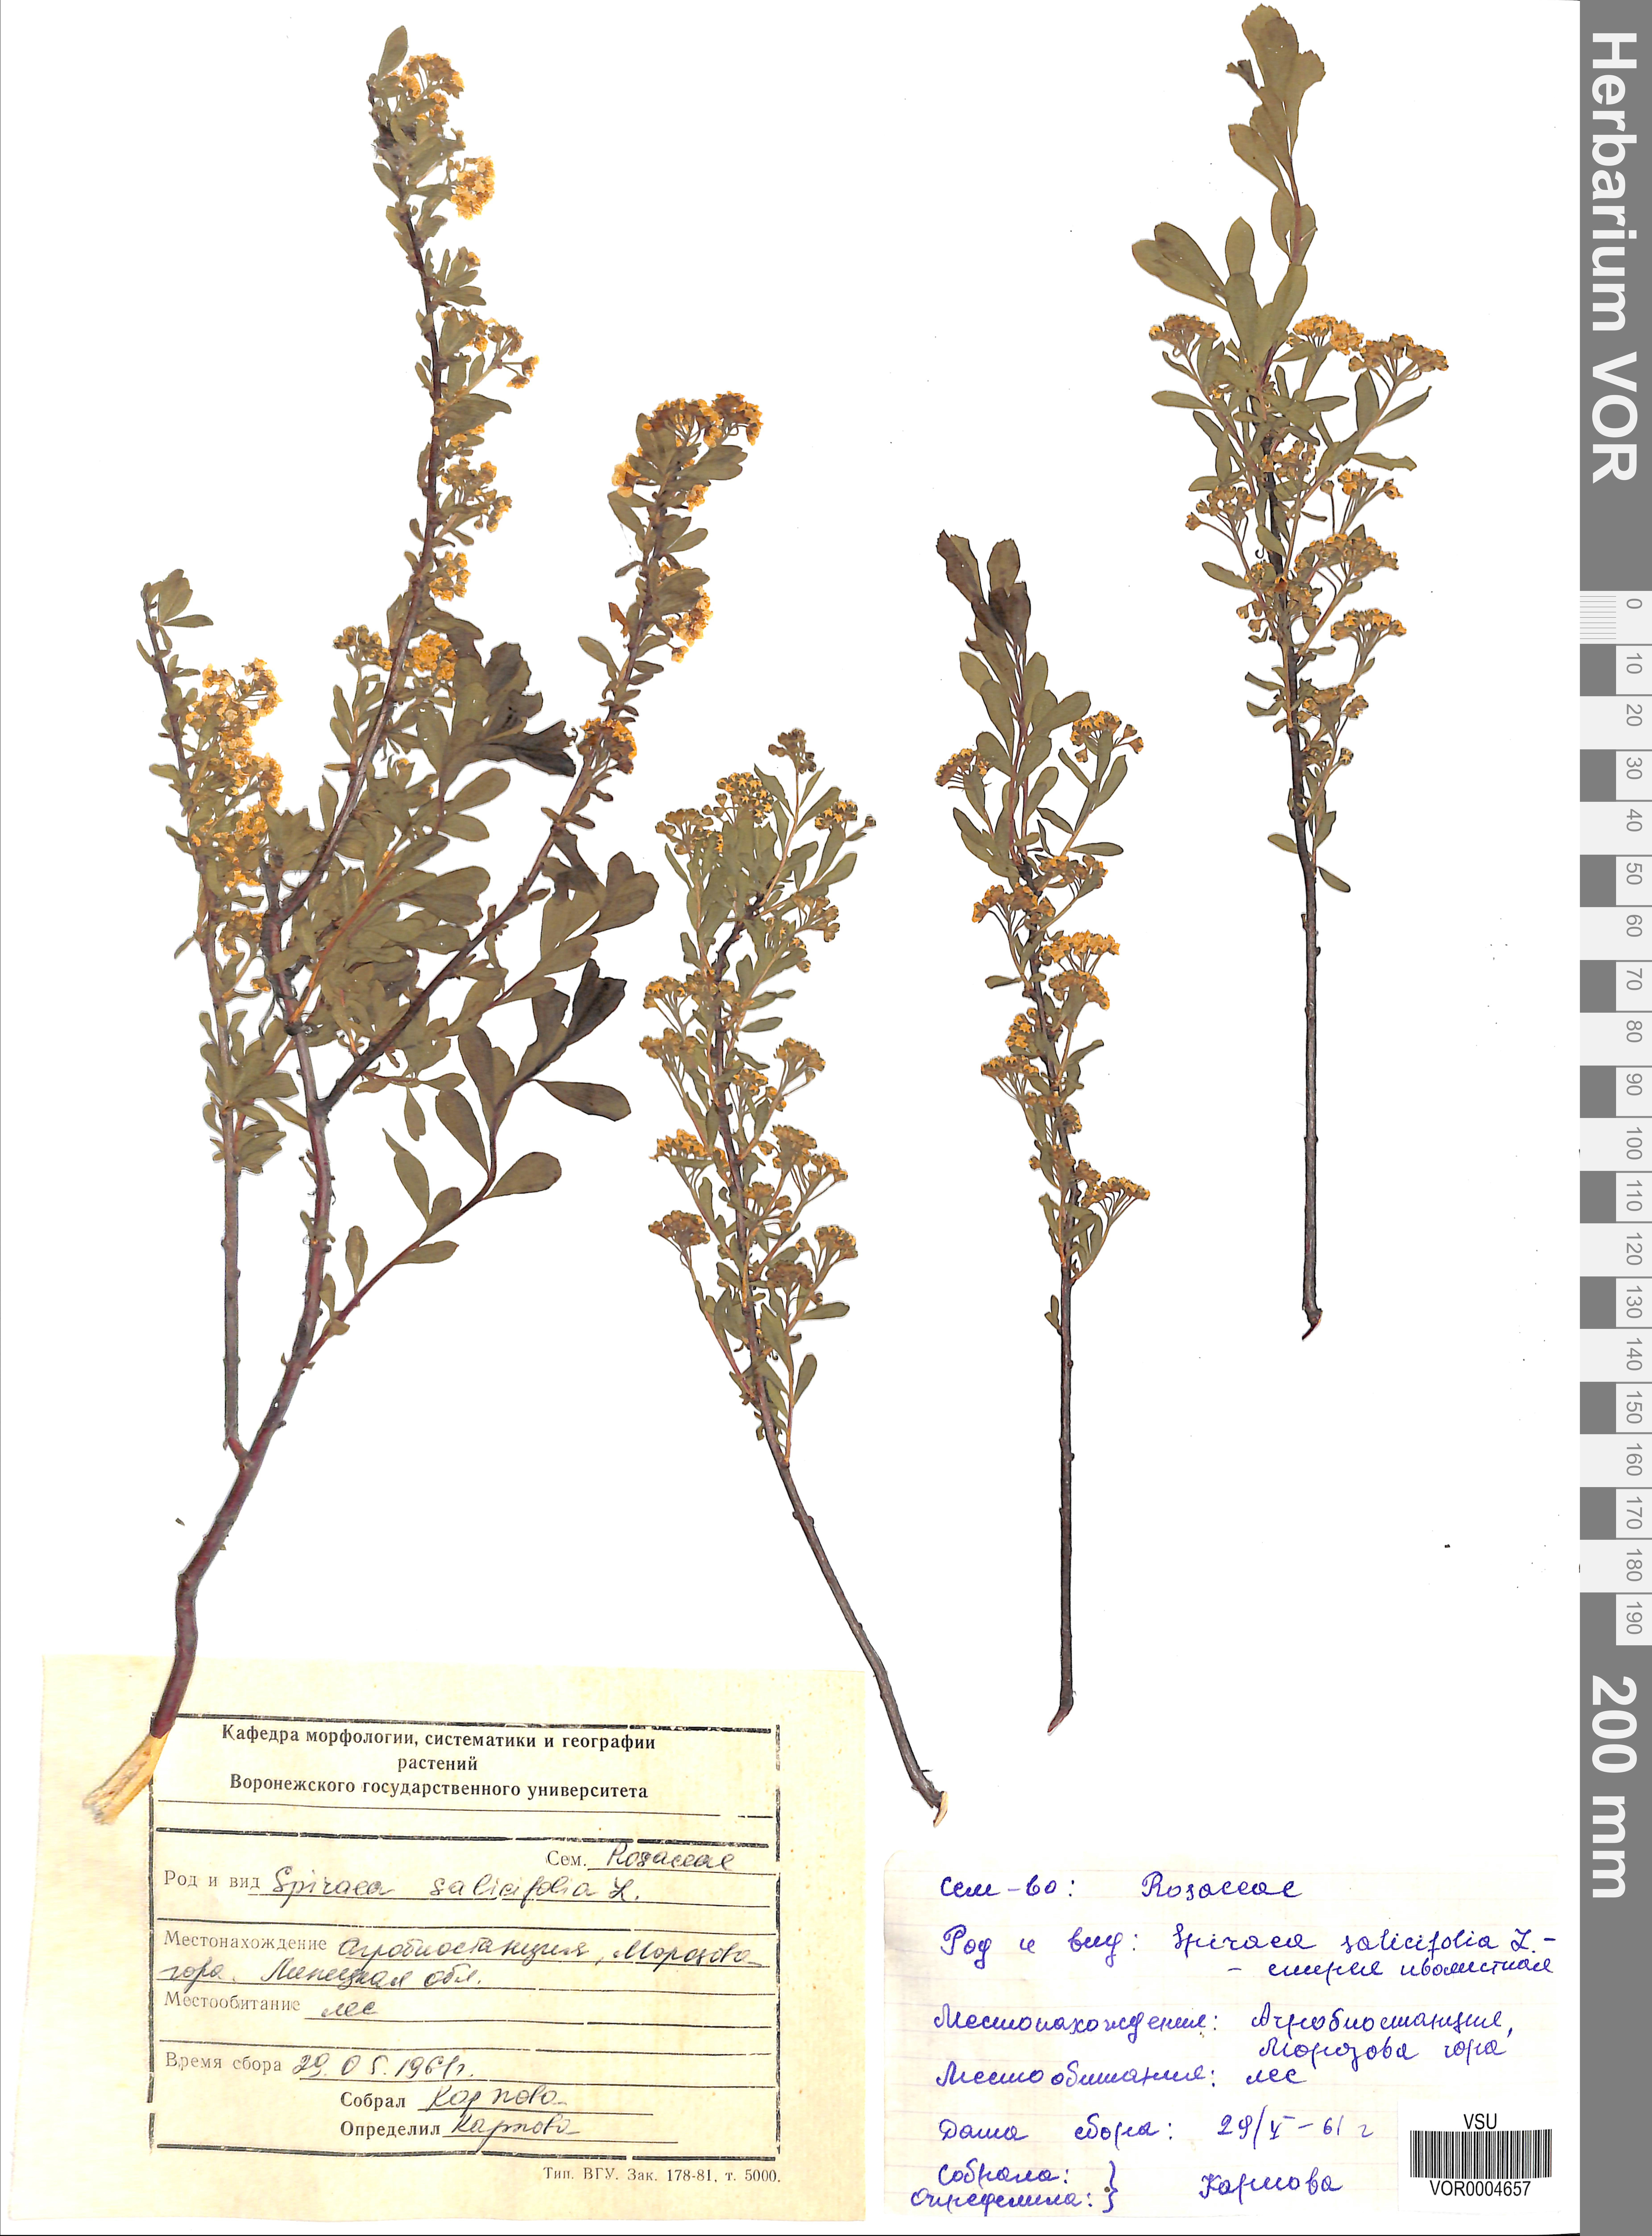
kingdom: Plantae
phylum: Tracheophyta
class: Magnoliopsida
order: Rosales
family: Rosaceae
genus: Spiraea
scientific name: Spiraea salicifolia
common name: Bridewort
